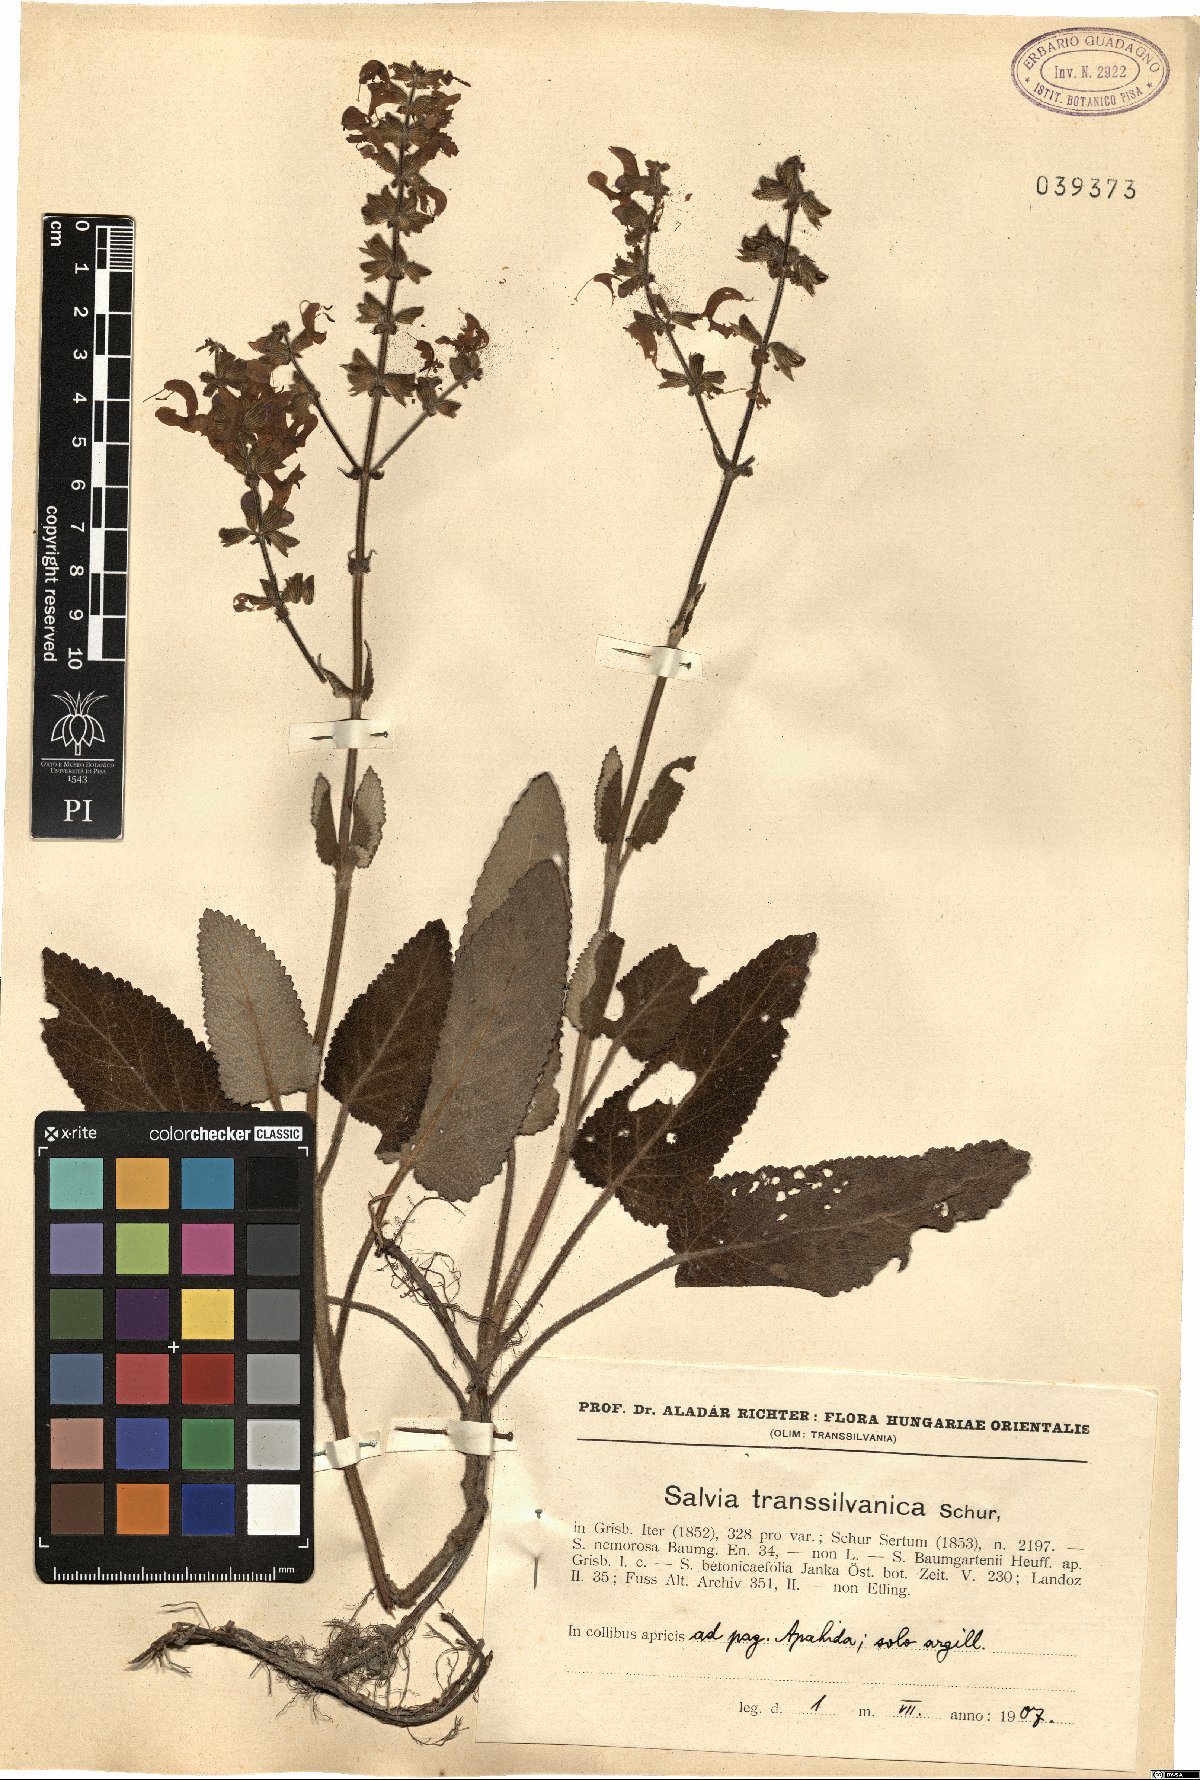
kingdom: Plantae
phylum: Tracheophyta
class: Magnoliopsida
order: Lamiales
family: Lamiaceae
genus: Salvia
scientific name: Salvia transsylvanica
